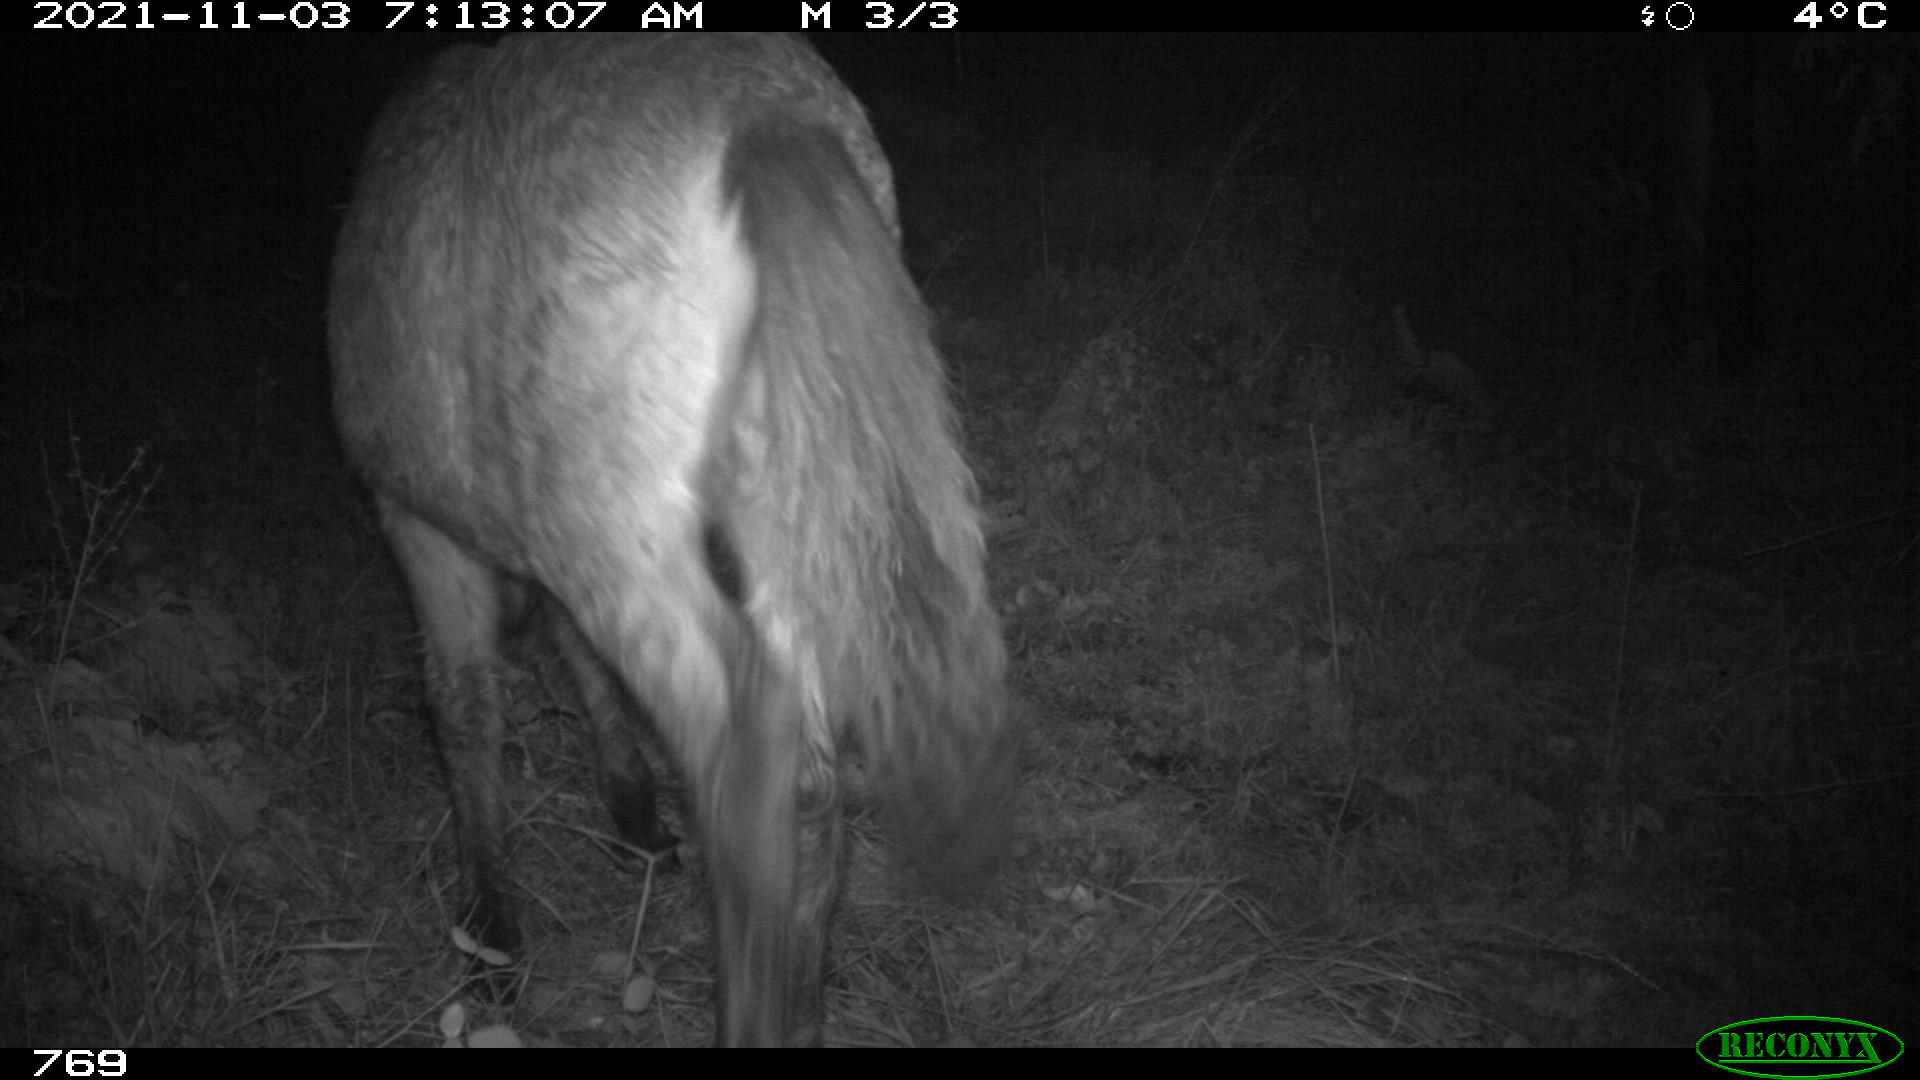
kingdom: Animalia
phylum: Chordata
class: Mammalia
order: Perissodactyla
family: Equidae
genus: Equus
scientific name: Equus caballus
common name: Horse
